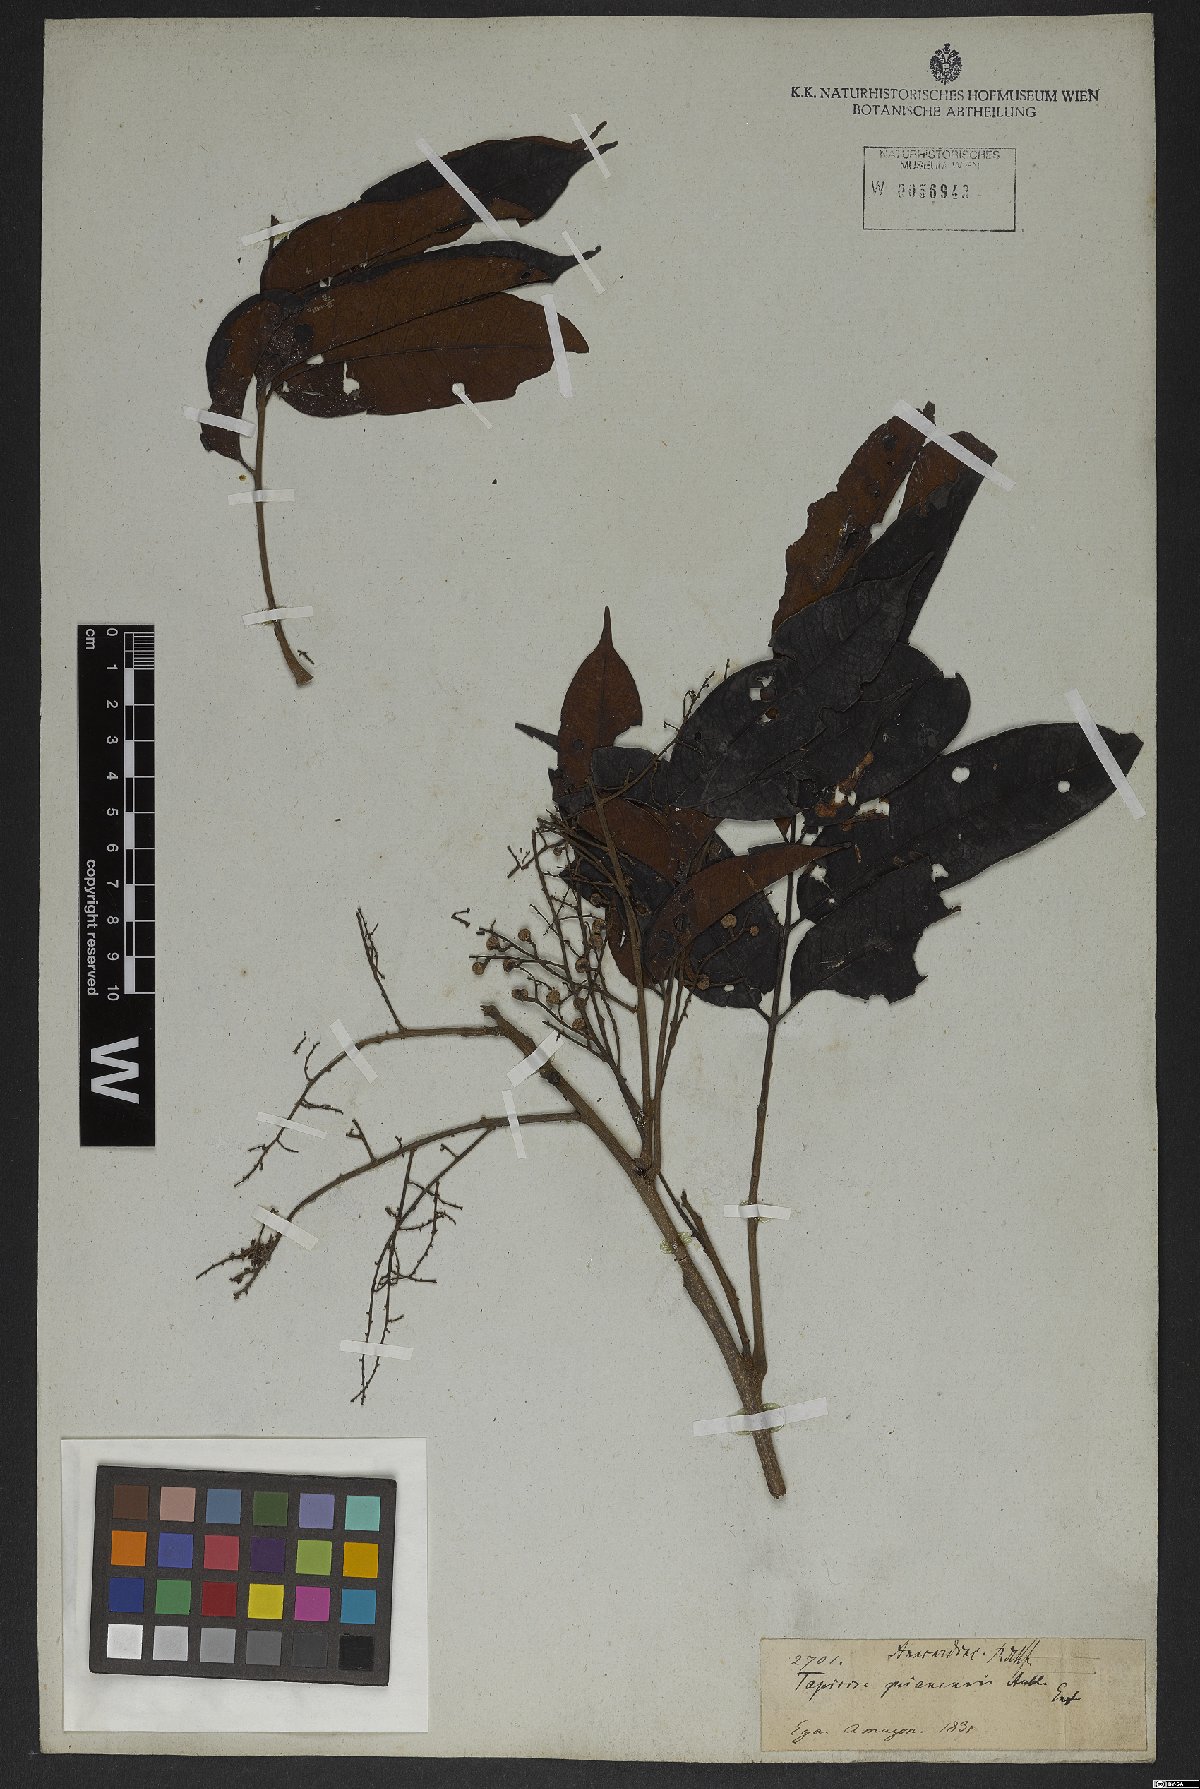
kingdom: Plantae
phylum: Tracheophyta
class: Magnoliopsida
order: Sapindales
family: Anacardiaceae
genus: Tapirira
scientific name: Tapirira guianensis
